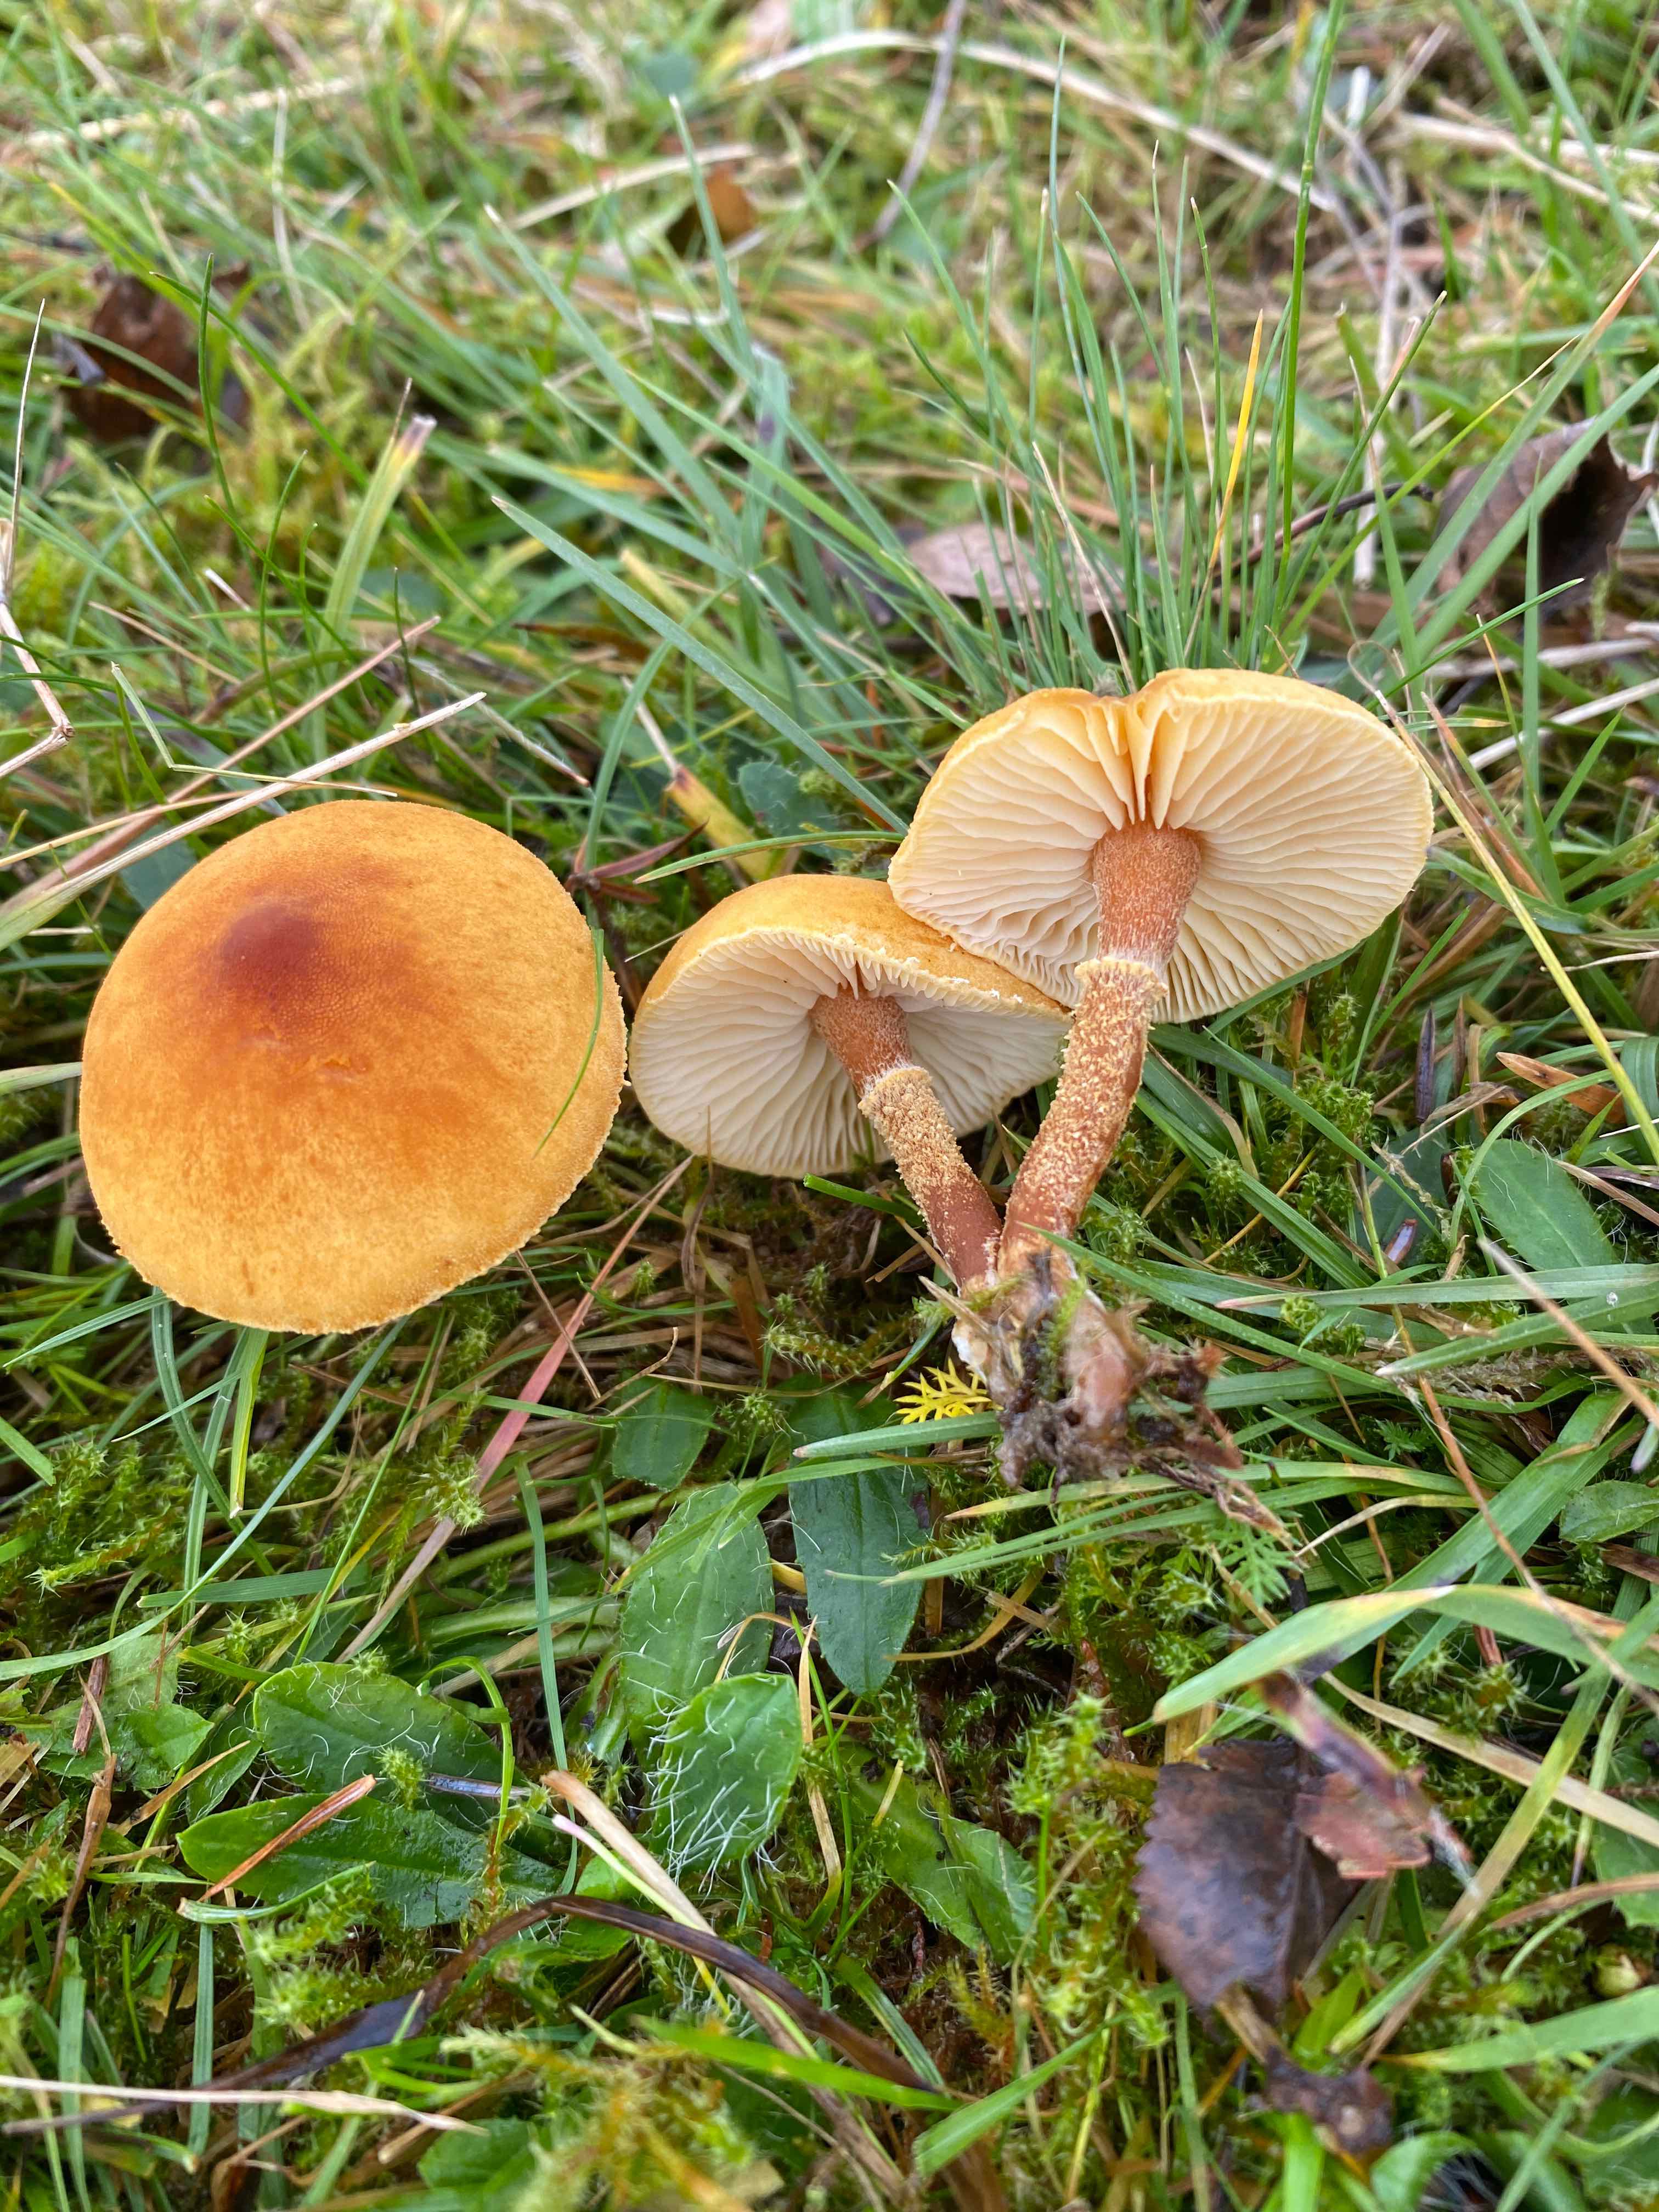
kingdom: Fungi
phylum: Basidiomycota
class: Agaricomycetes
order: Agaricales
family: Tricholomataceae
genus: Cystoderma
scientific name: Cystoderma amianthinum
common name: okkergul grynhat
